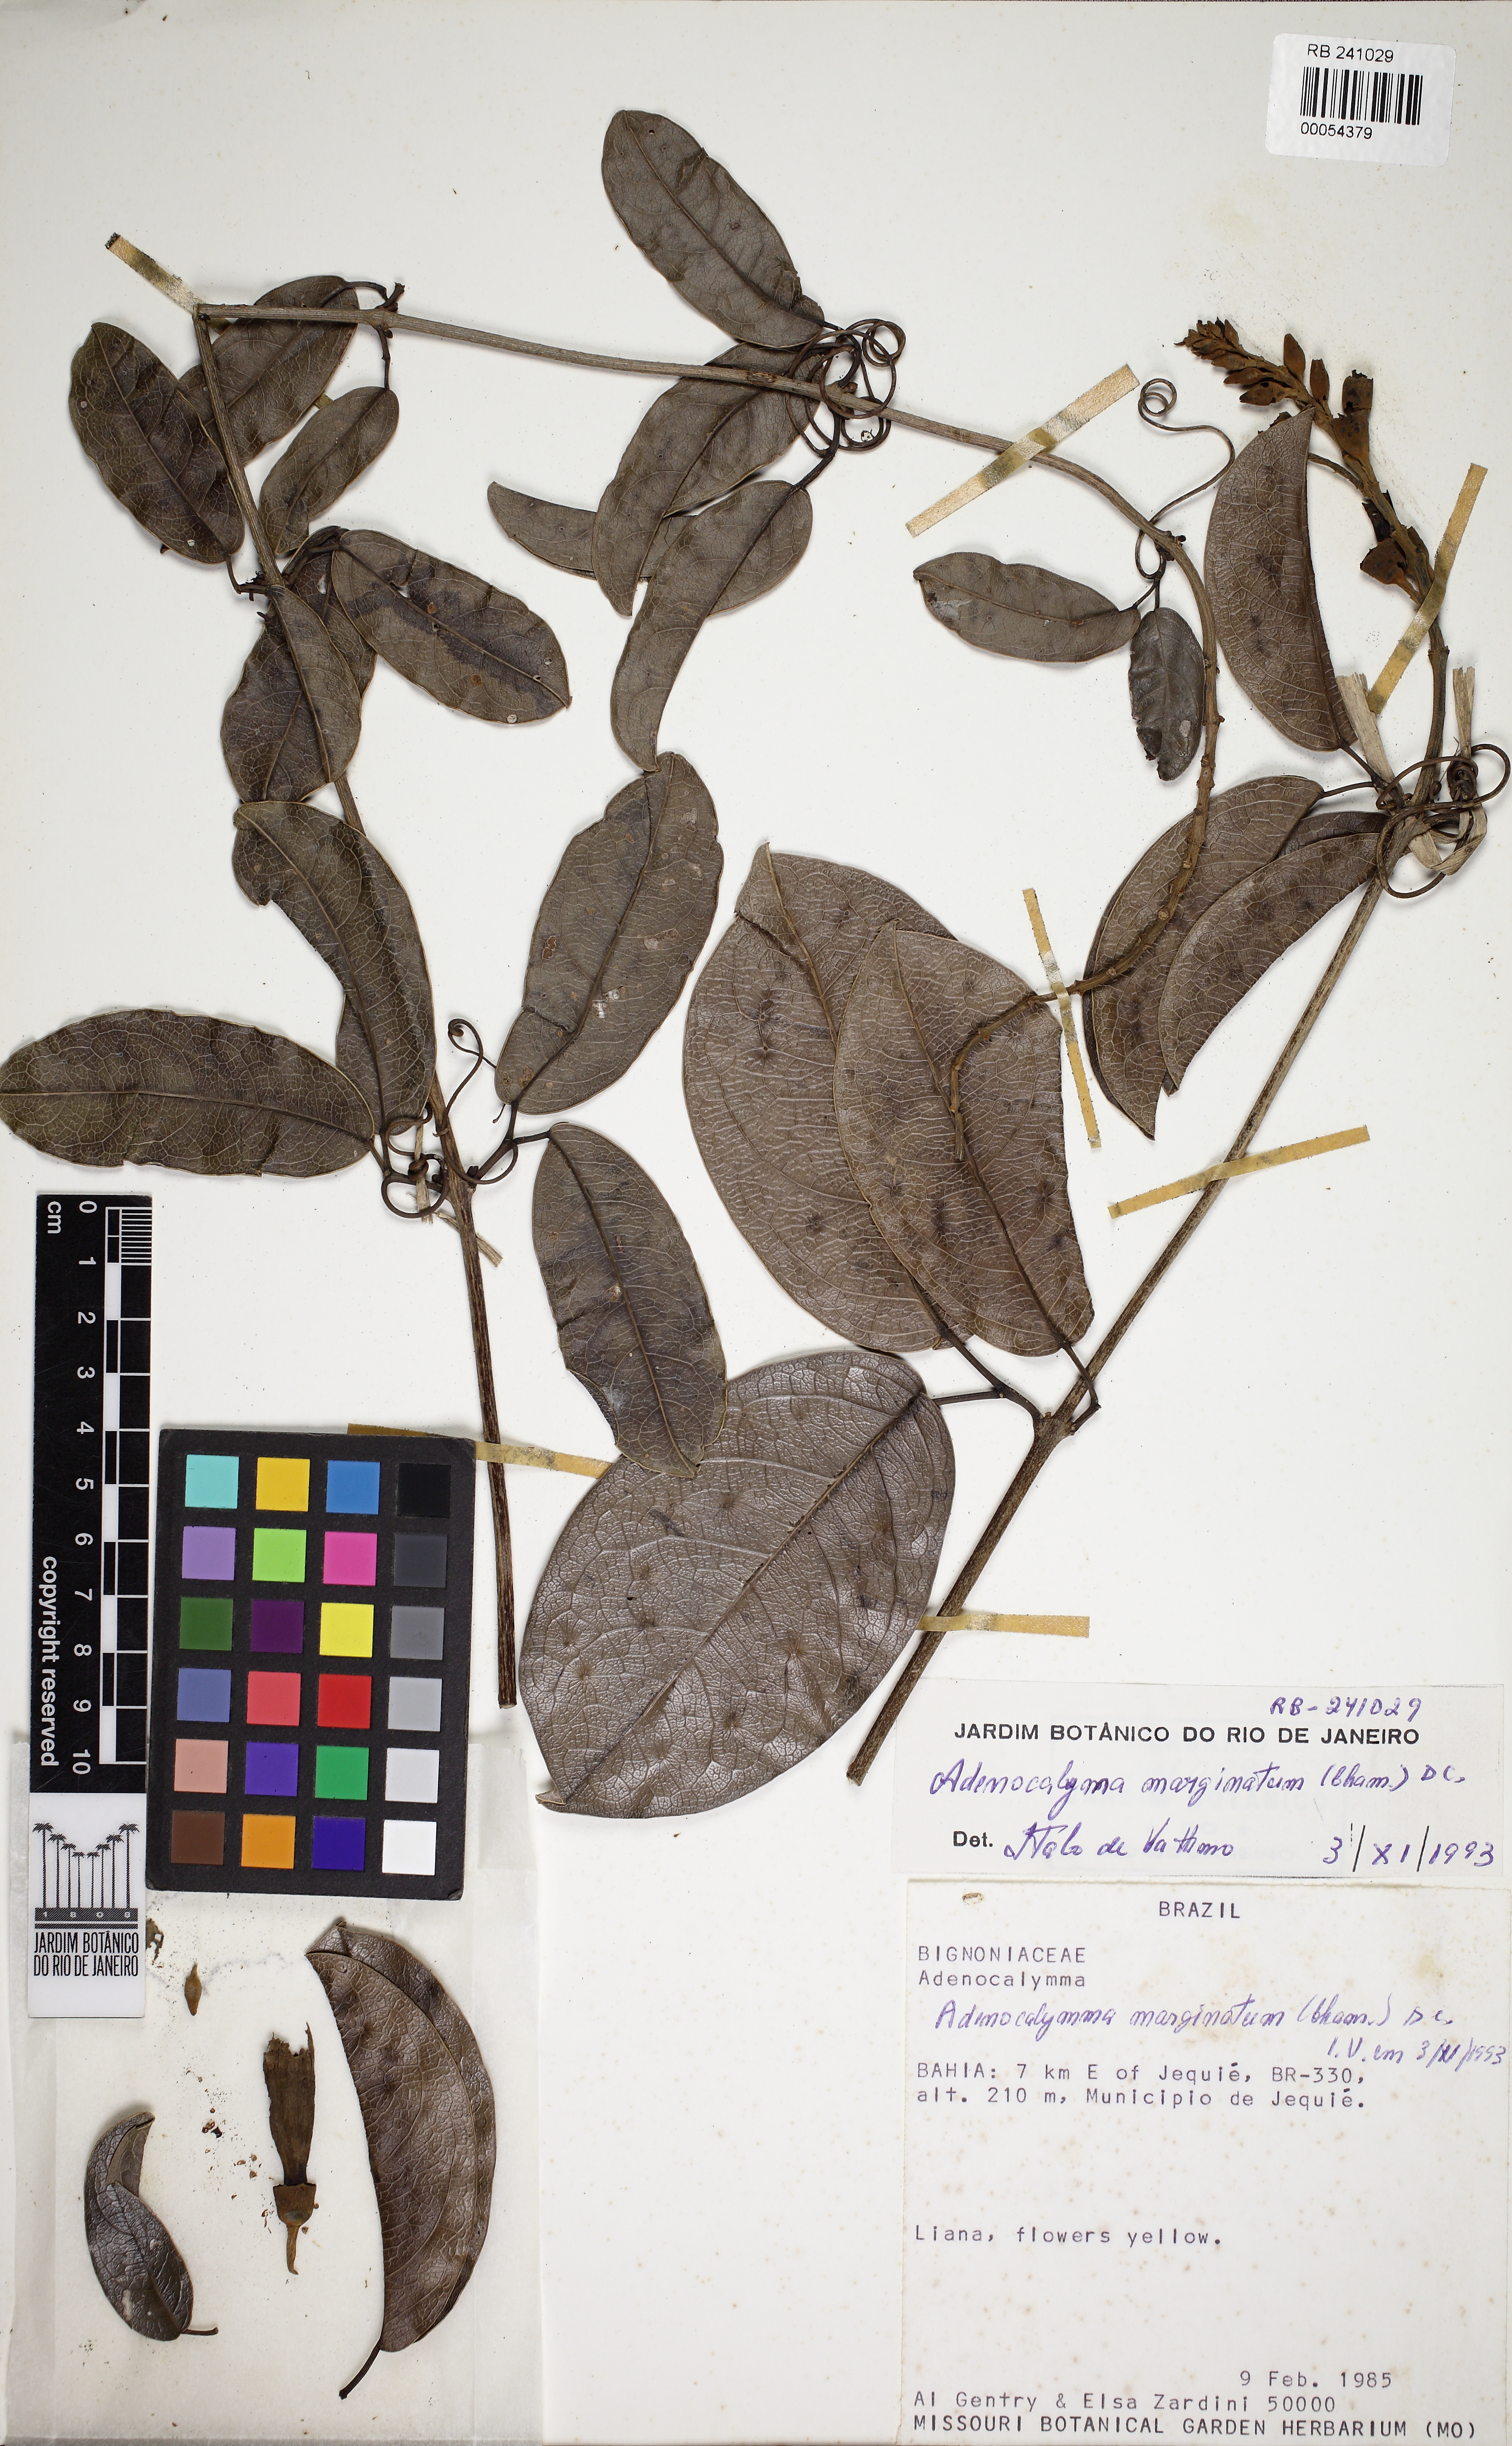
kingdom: Plantae
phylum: Tracheophyta
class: Magnoliopsida
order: Lamiales
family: Bignoniaceae
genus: Adenocalymma
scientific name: Adenocalymma marginatum
